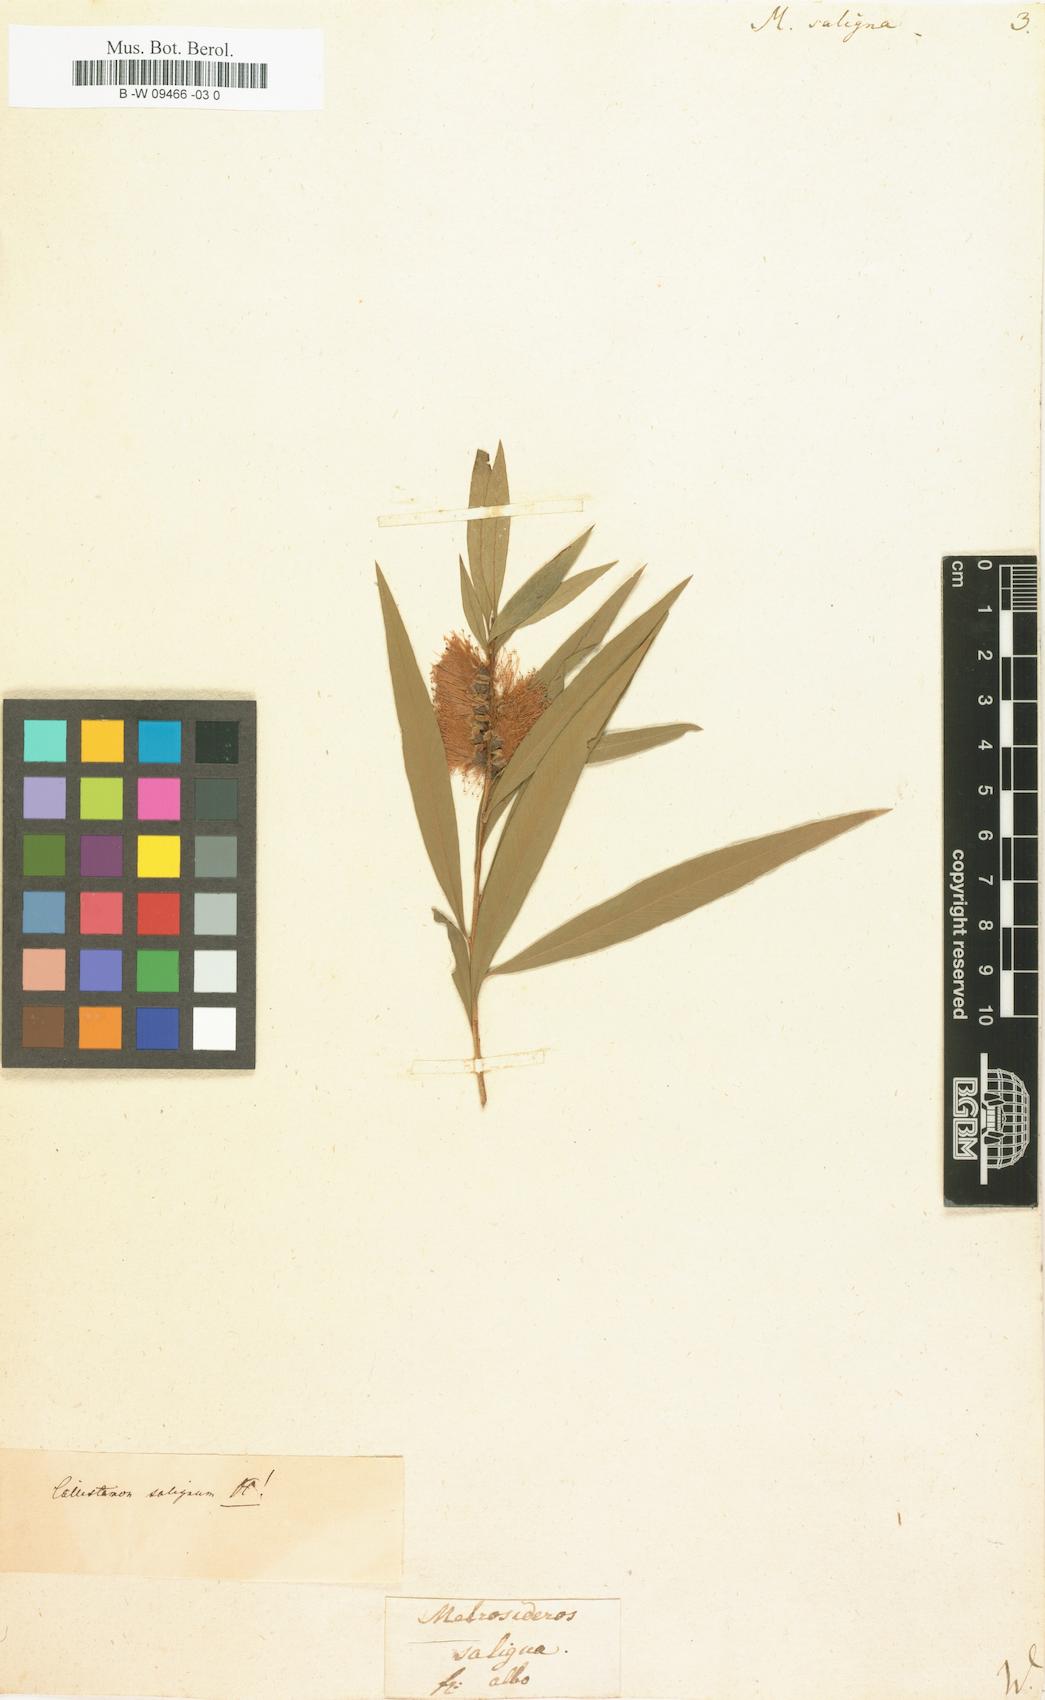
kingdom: Plantae
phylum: Tracheophyta
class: Magnoliopsida
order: Myrtales
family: Myrtaceae
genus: Callistemon
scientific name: Callistemon salignus
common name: White bottlebrush
